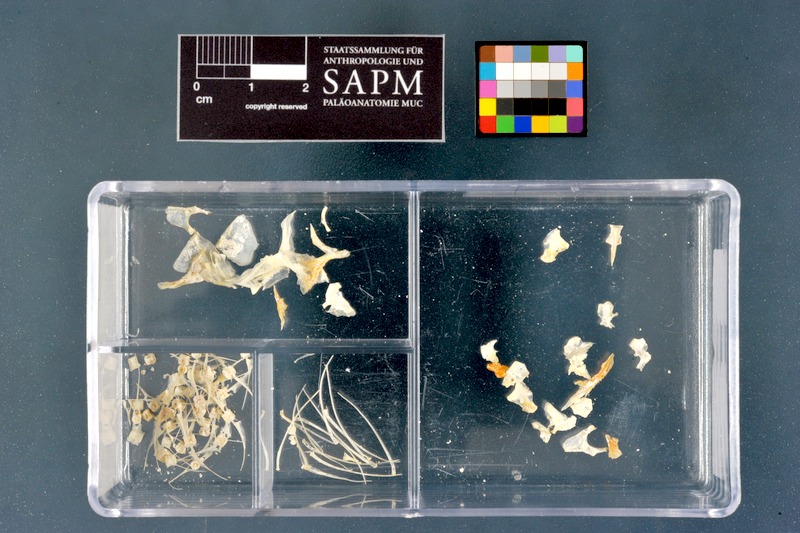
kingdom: Animalia
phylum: Chordata
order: Osteoglossiformes
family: Mormyridae
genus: Petrocephalus
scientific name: Petrocephalus bane
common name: Bane mormyrid
